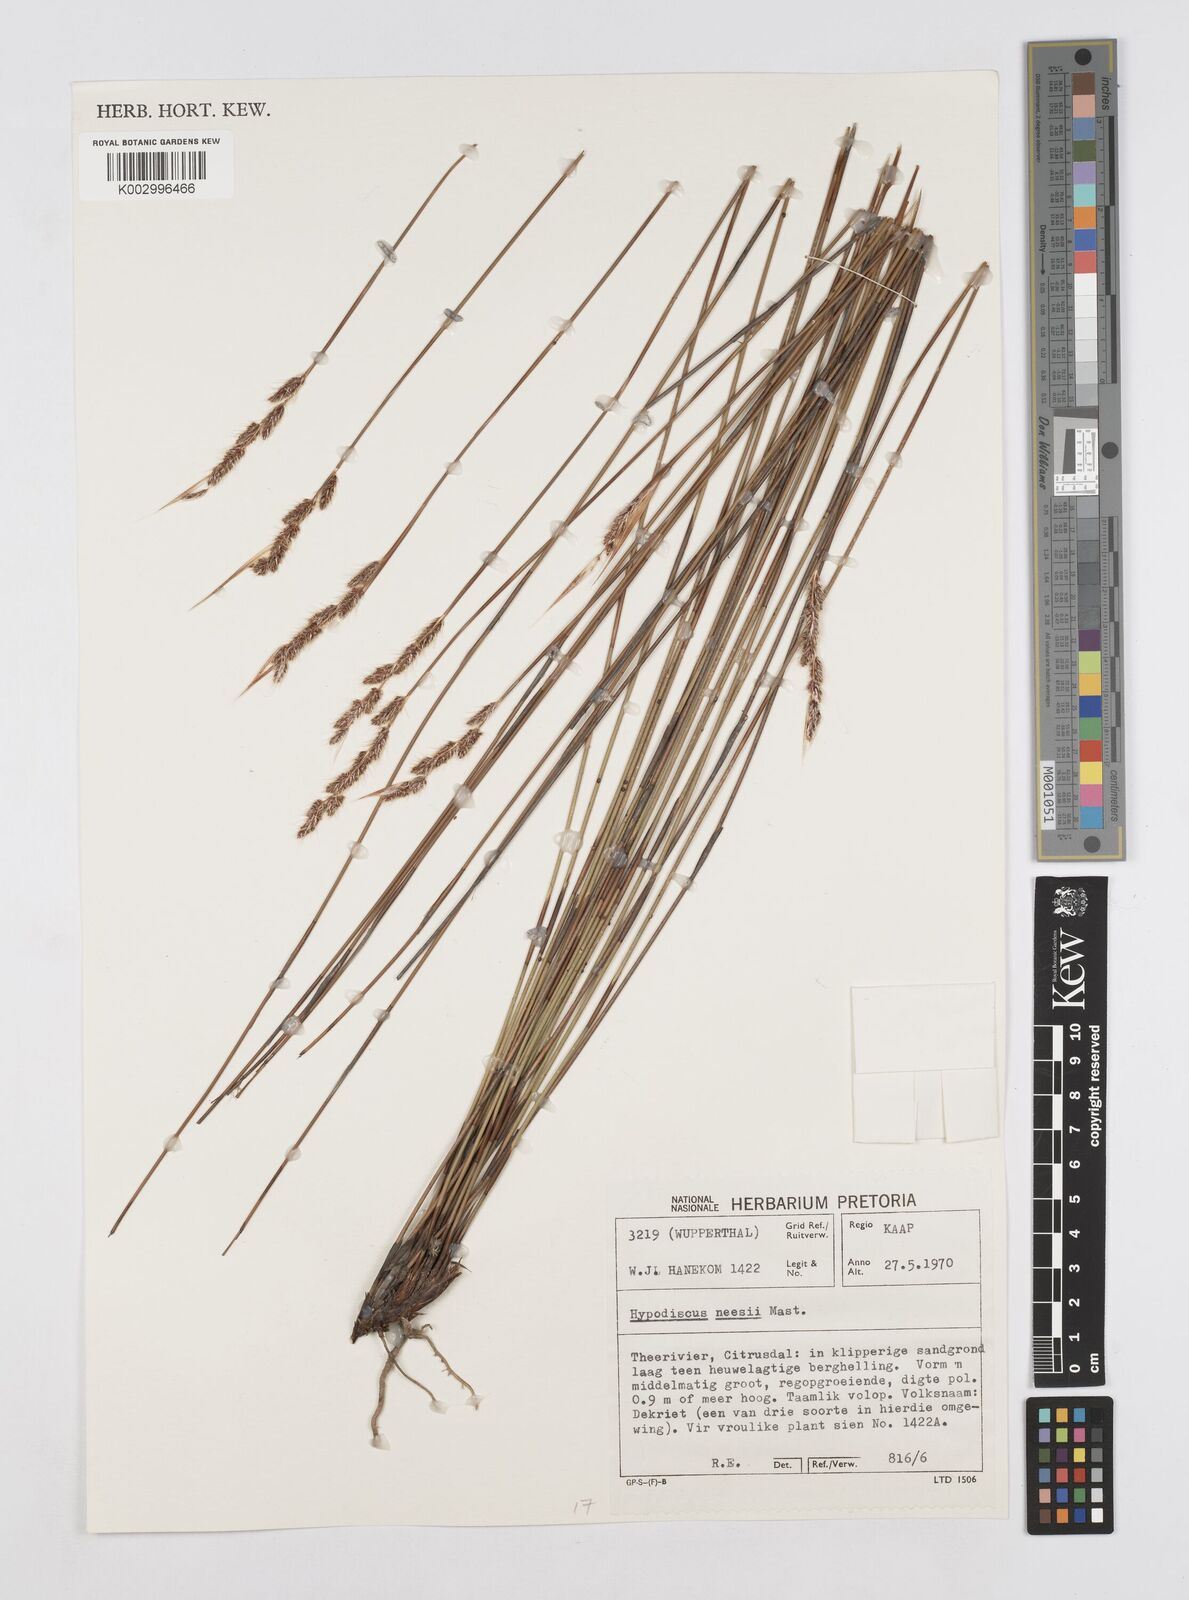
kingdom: Plantae
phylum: Tracheophyta
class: Liliopsida
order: Poales
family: Restionaceae
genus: Hypodiscus
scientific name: Hypodiscus neesii
